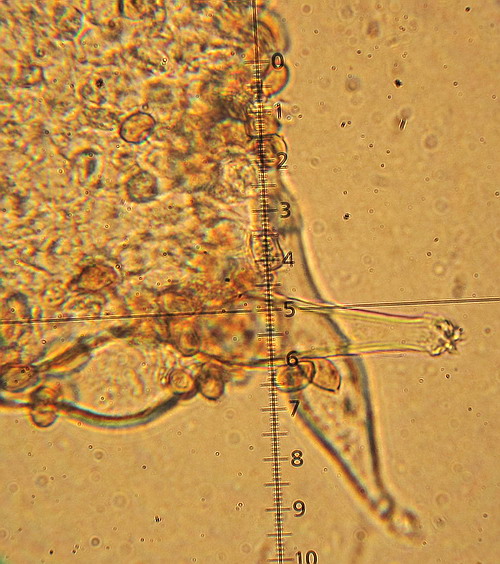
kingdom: Fungi
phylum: Basidiomycota
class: Agaricomycetes
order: Agaricales
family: Inocybaceae
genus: Inocybe
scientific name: Inocybe
